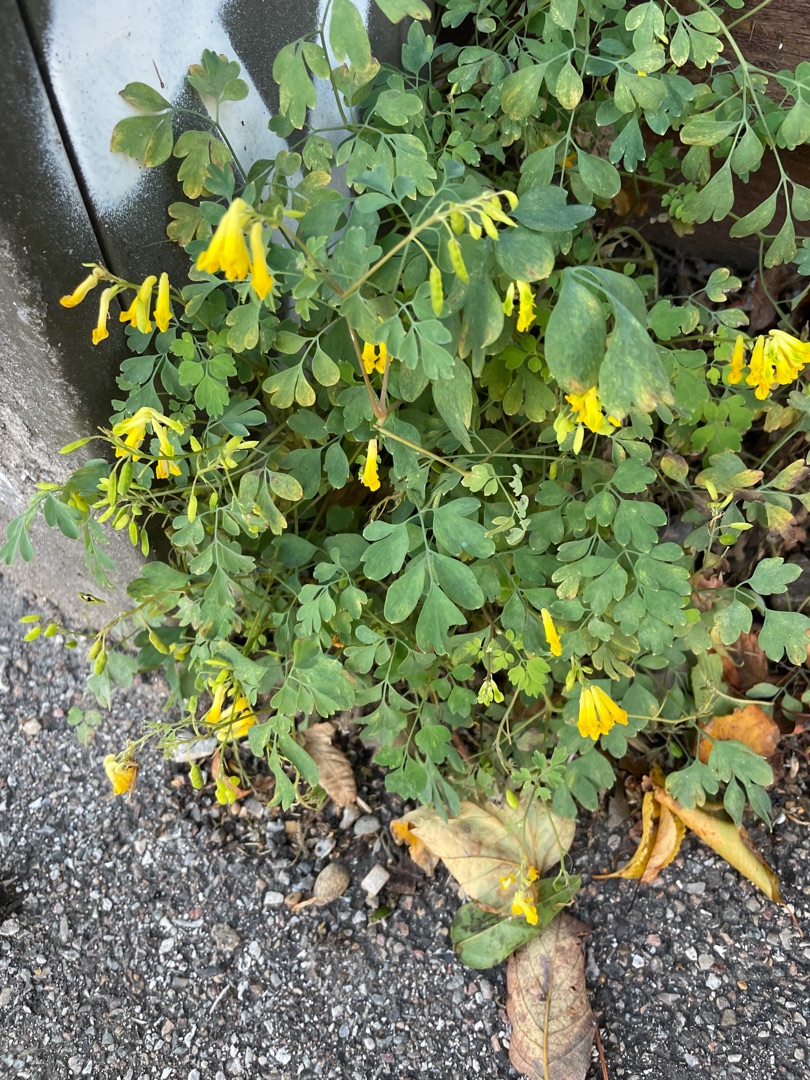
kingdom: Plantae
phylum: Tracheophyta
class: Magnoliopsida
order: Ranunculales
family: Papaveraceae
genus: Pseudofumaria
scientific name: Pseudofumaria lutea
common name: Gul lærkespore
